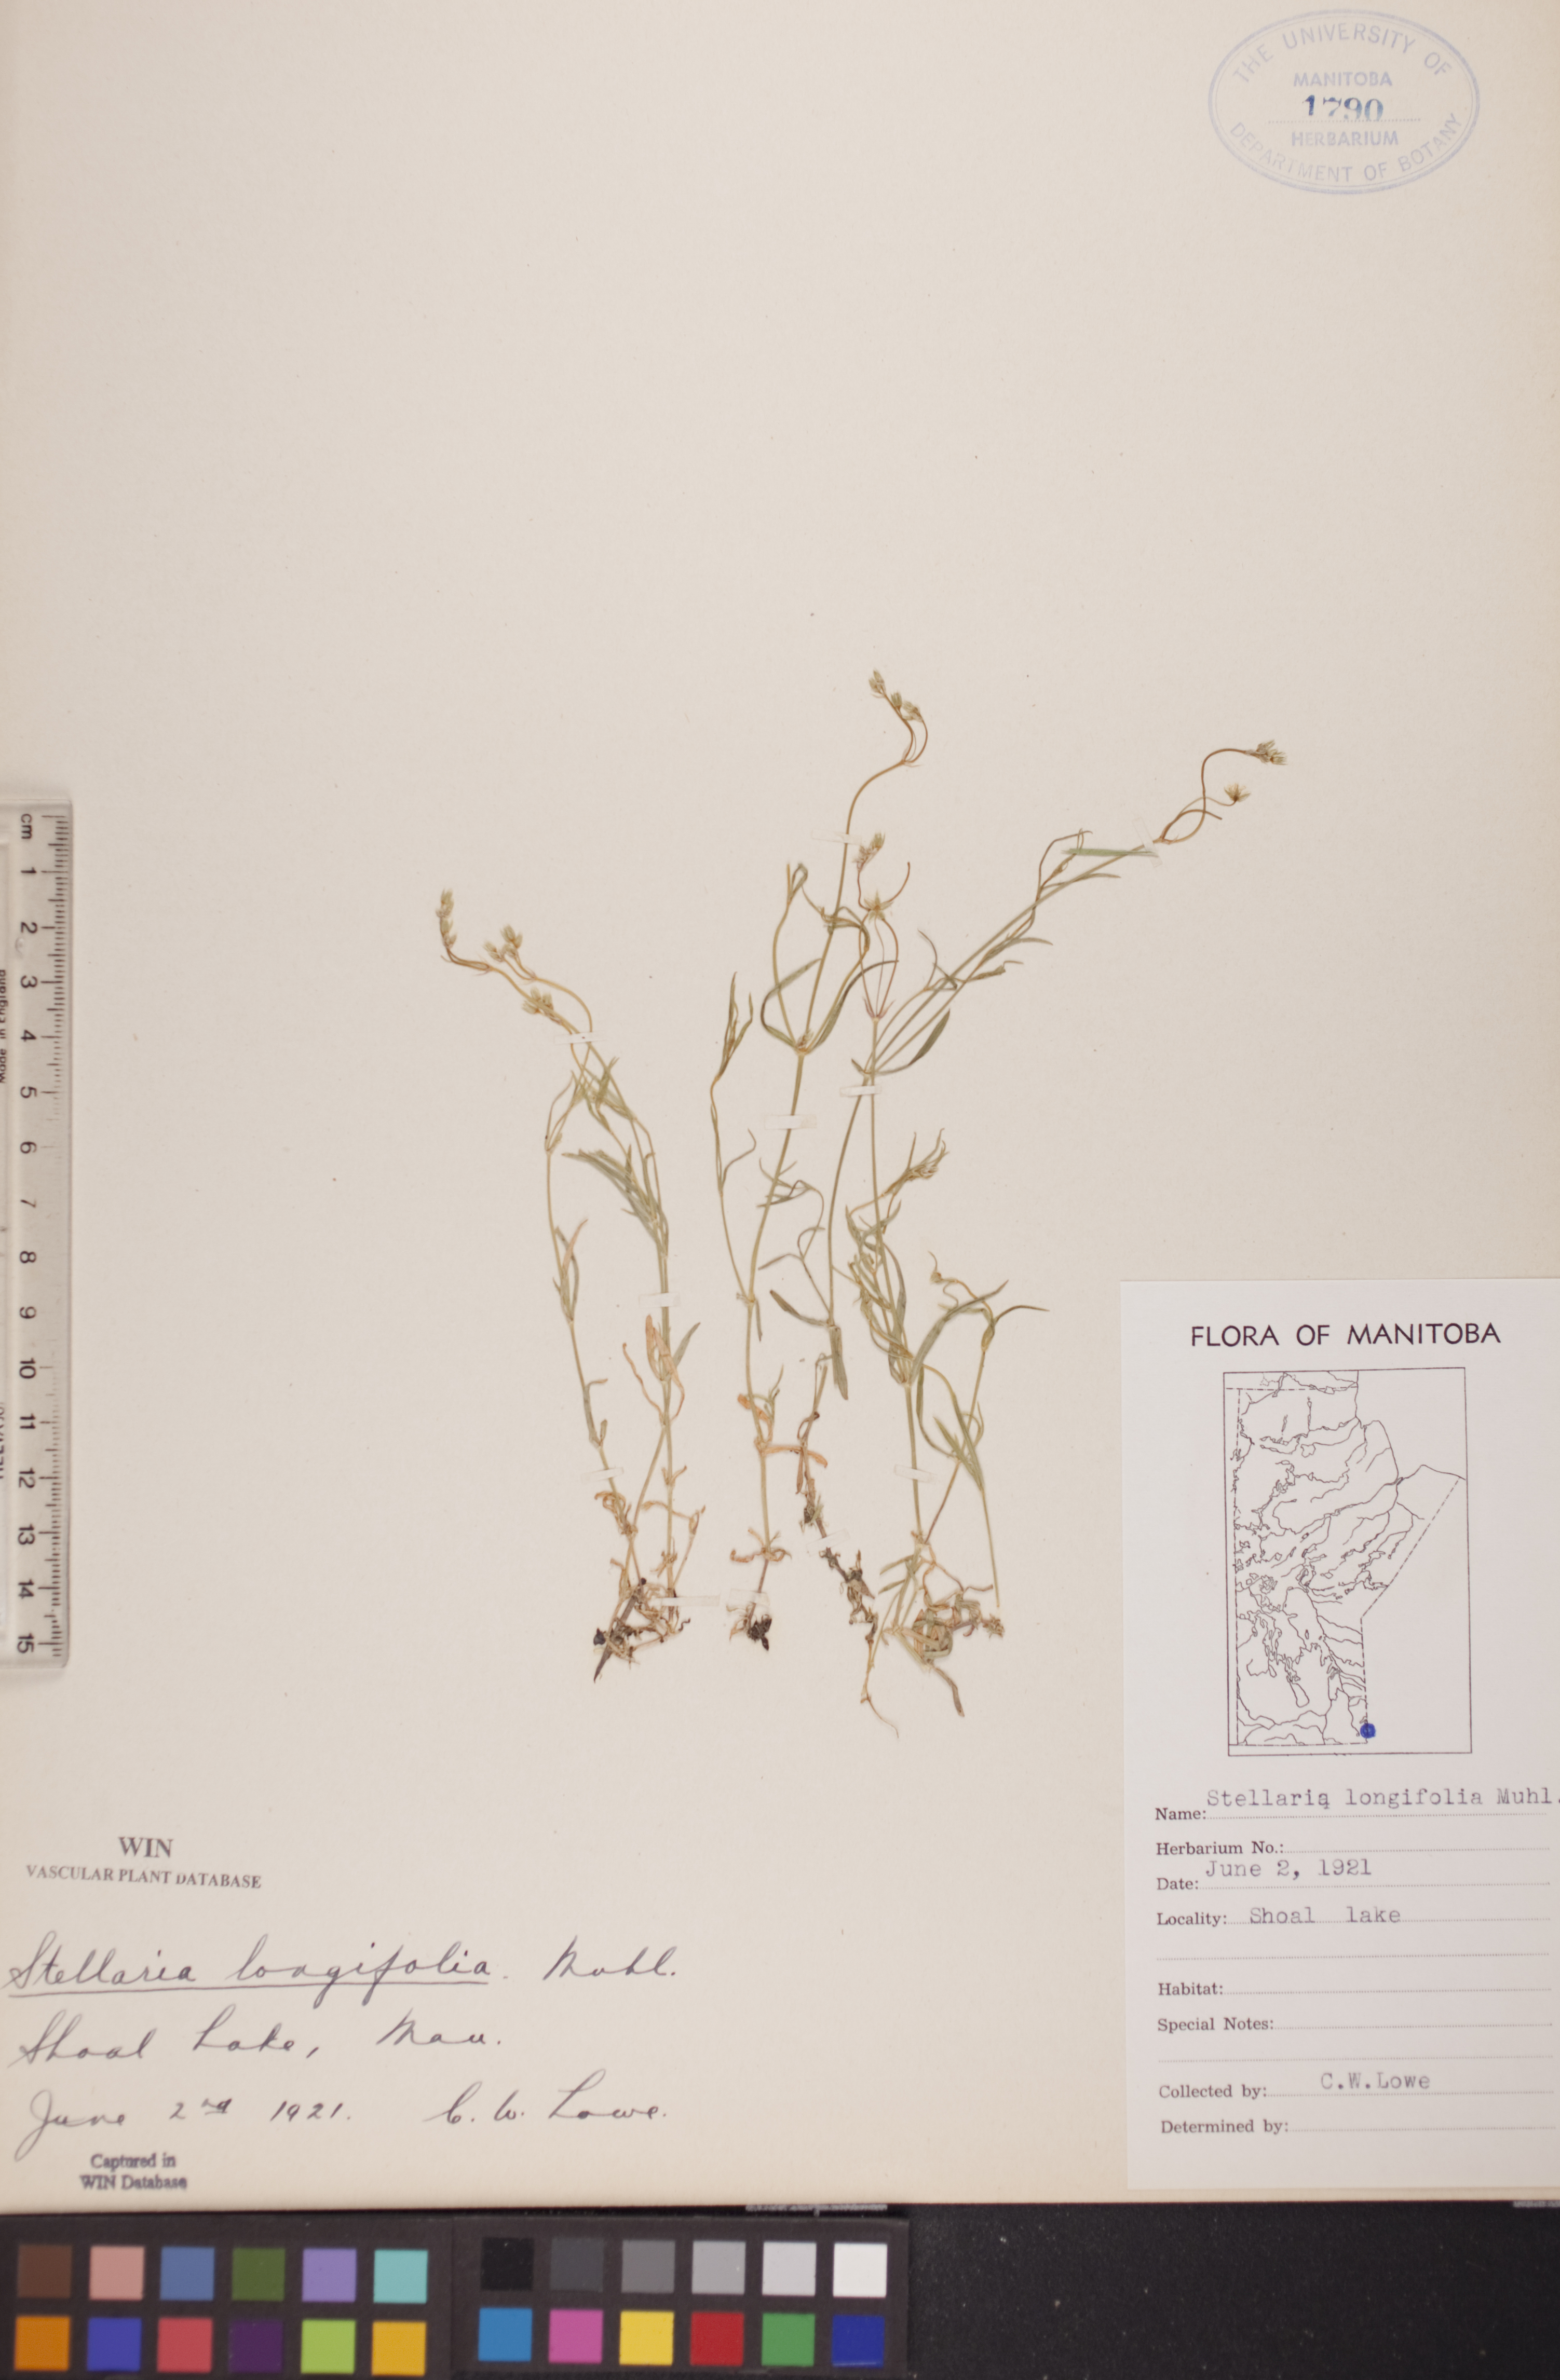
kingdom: Plantae
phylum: Tracheophyta
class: Magnoliopsida
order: Caryophyllales
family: Caryophyllaceae
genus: Stellaria
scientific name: Stellaria longifolia
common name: Long-leaved chickweed
